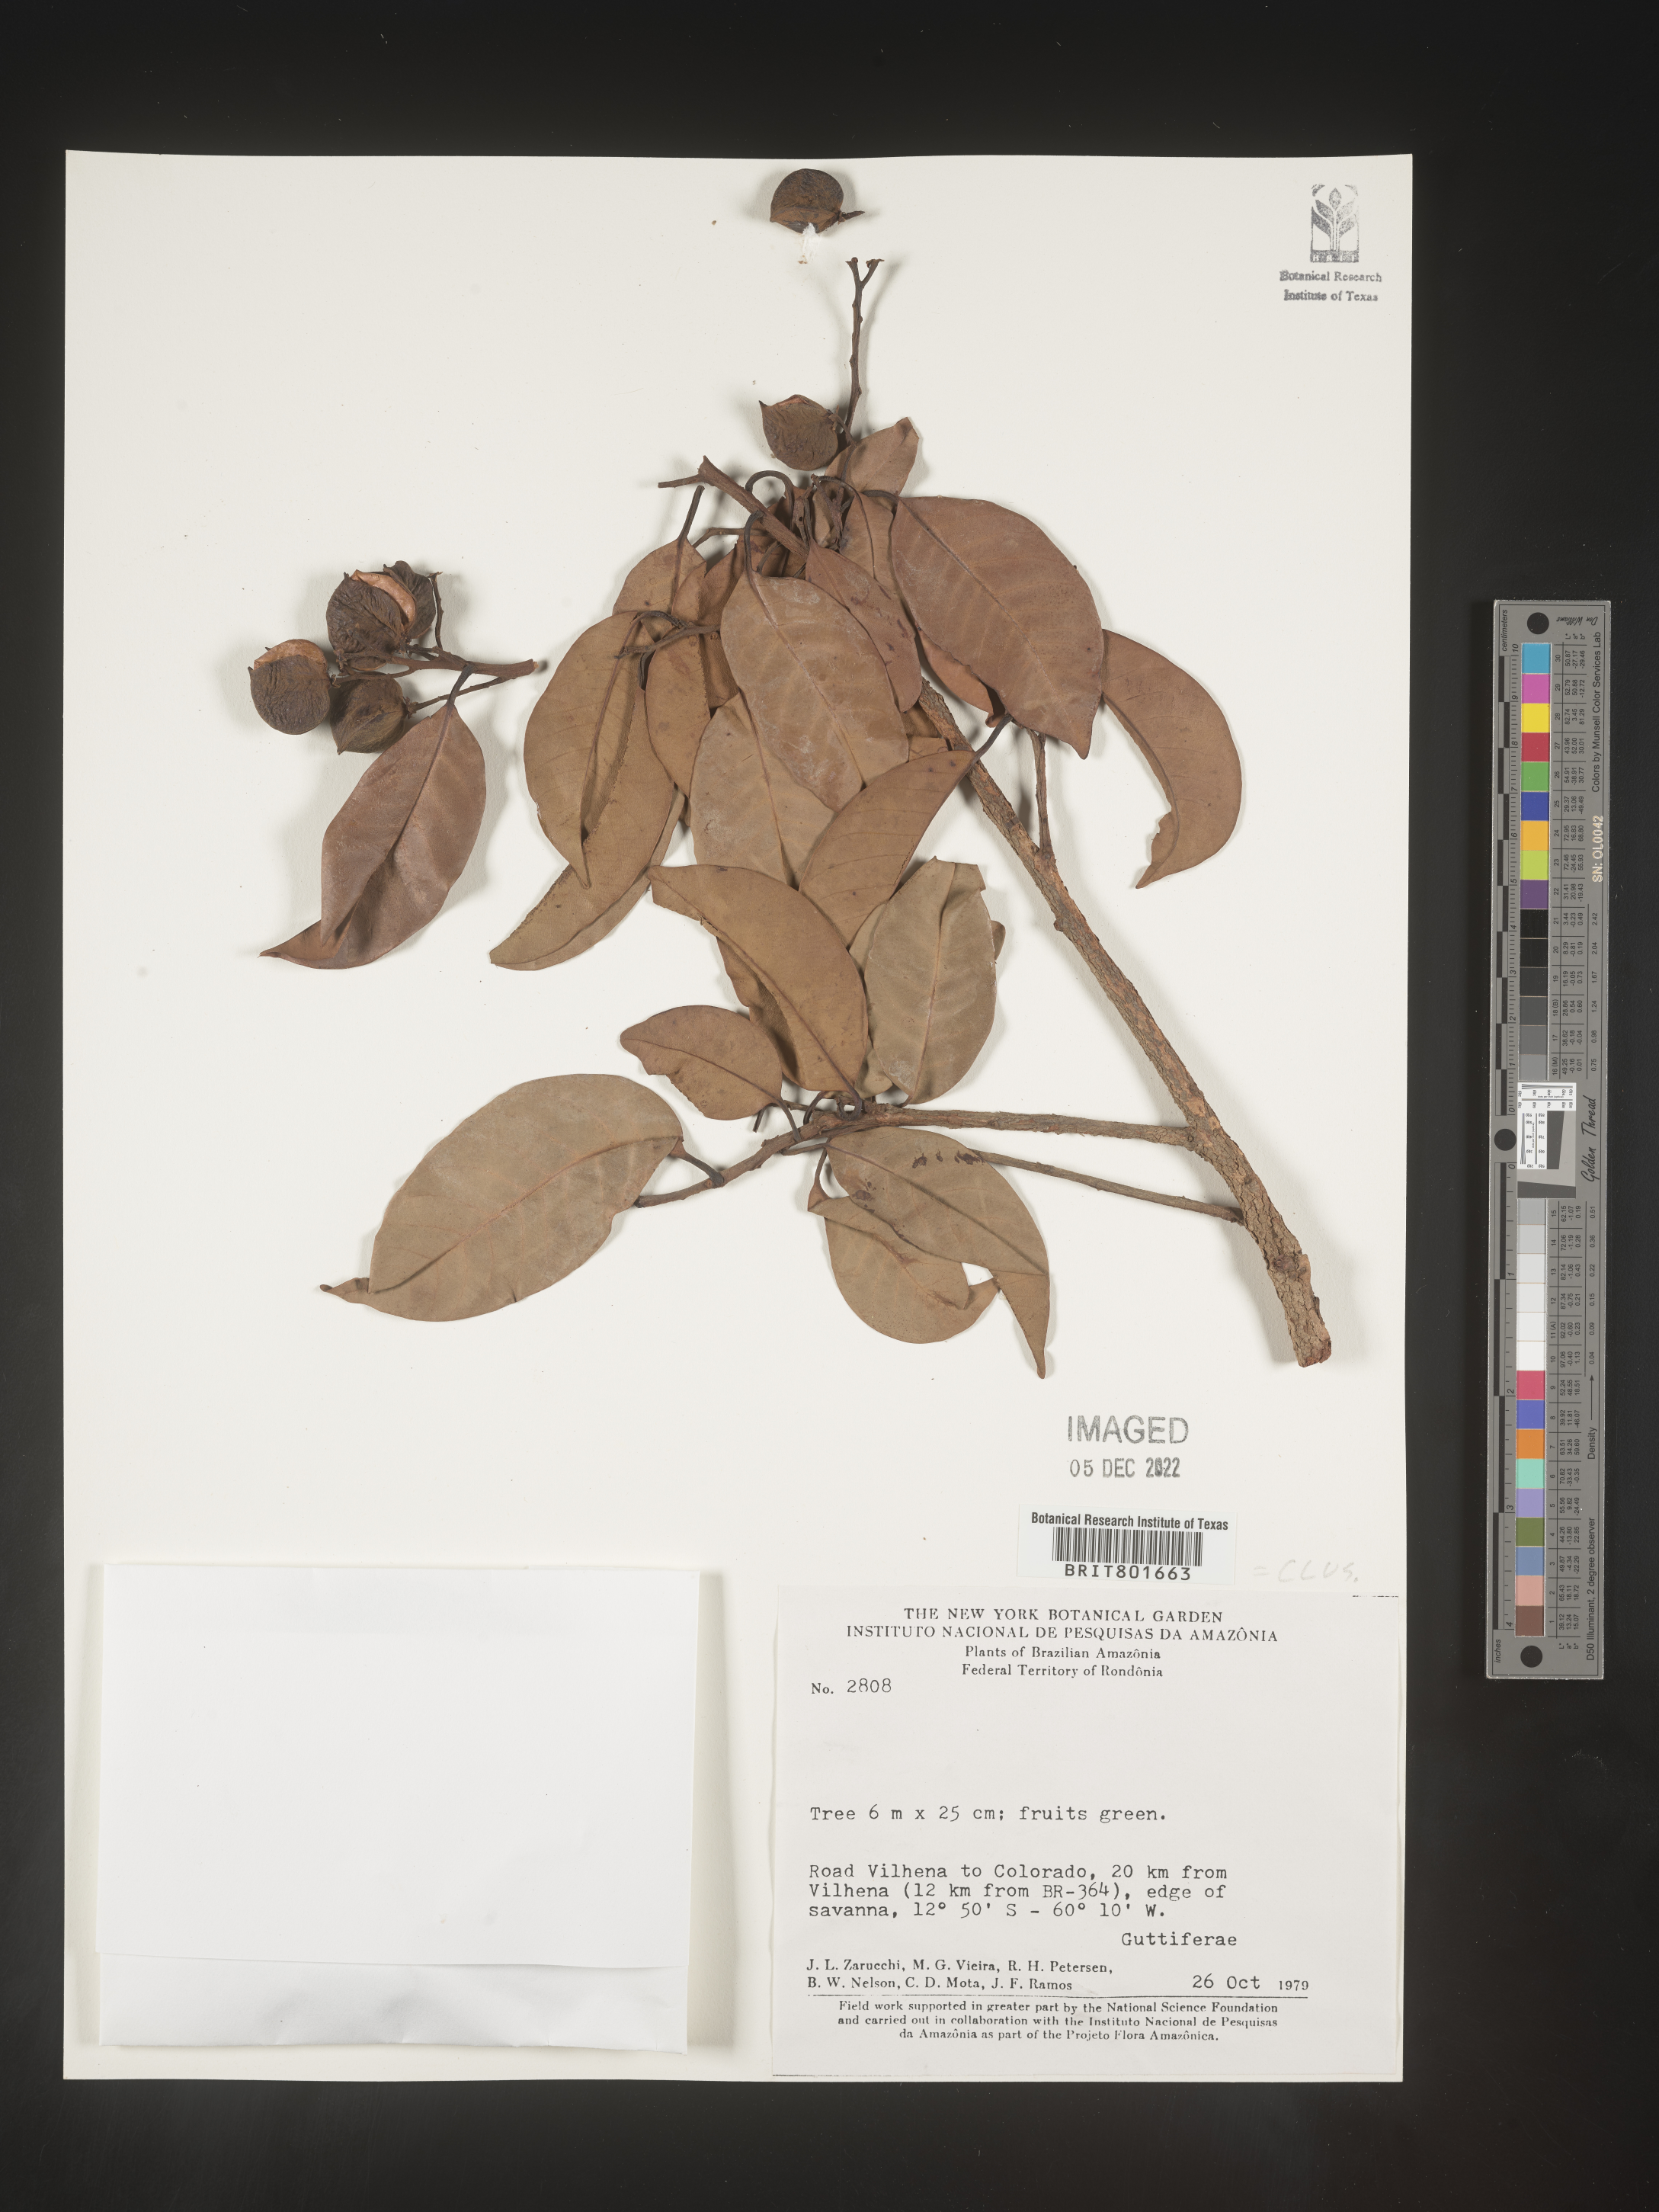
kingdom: Plantae
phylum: Tracheophyta
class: Magnoliopsida
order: Malpighiales
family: Clusiaceae
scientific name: Clusiaceae
